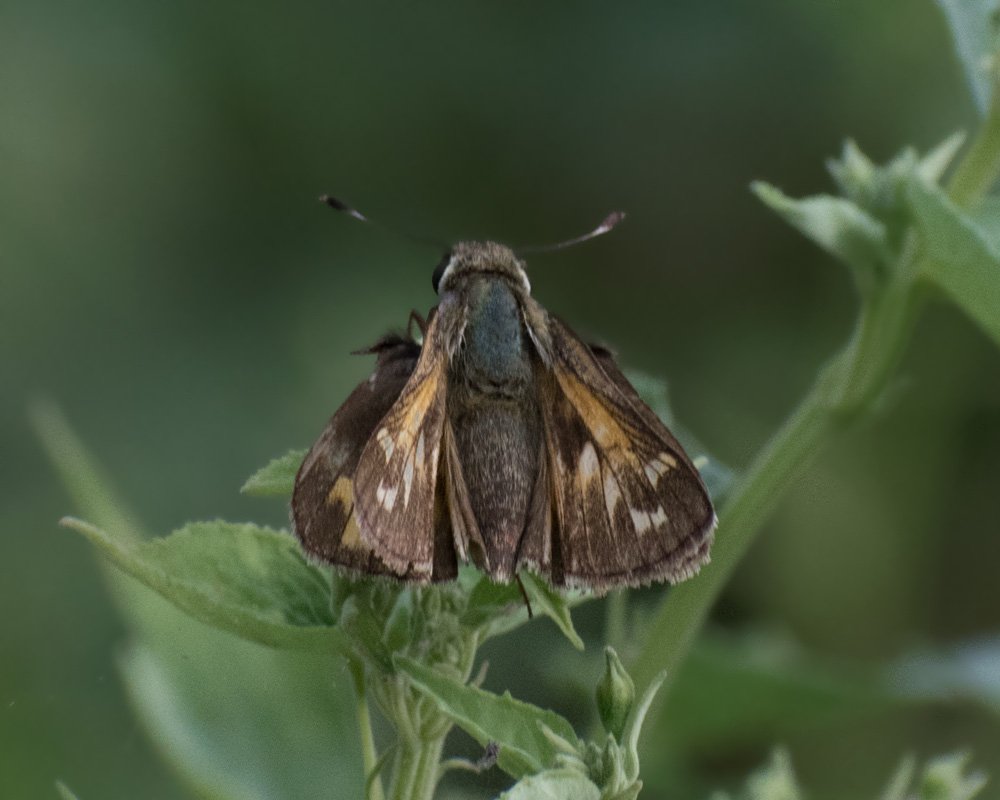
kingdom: Animalia
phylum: Arthropoda
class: Insecta
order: Lepidoptera
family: Hesperiidae
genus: Atalopedes
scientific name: Atalopedes campestris
